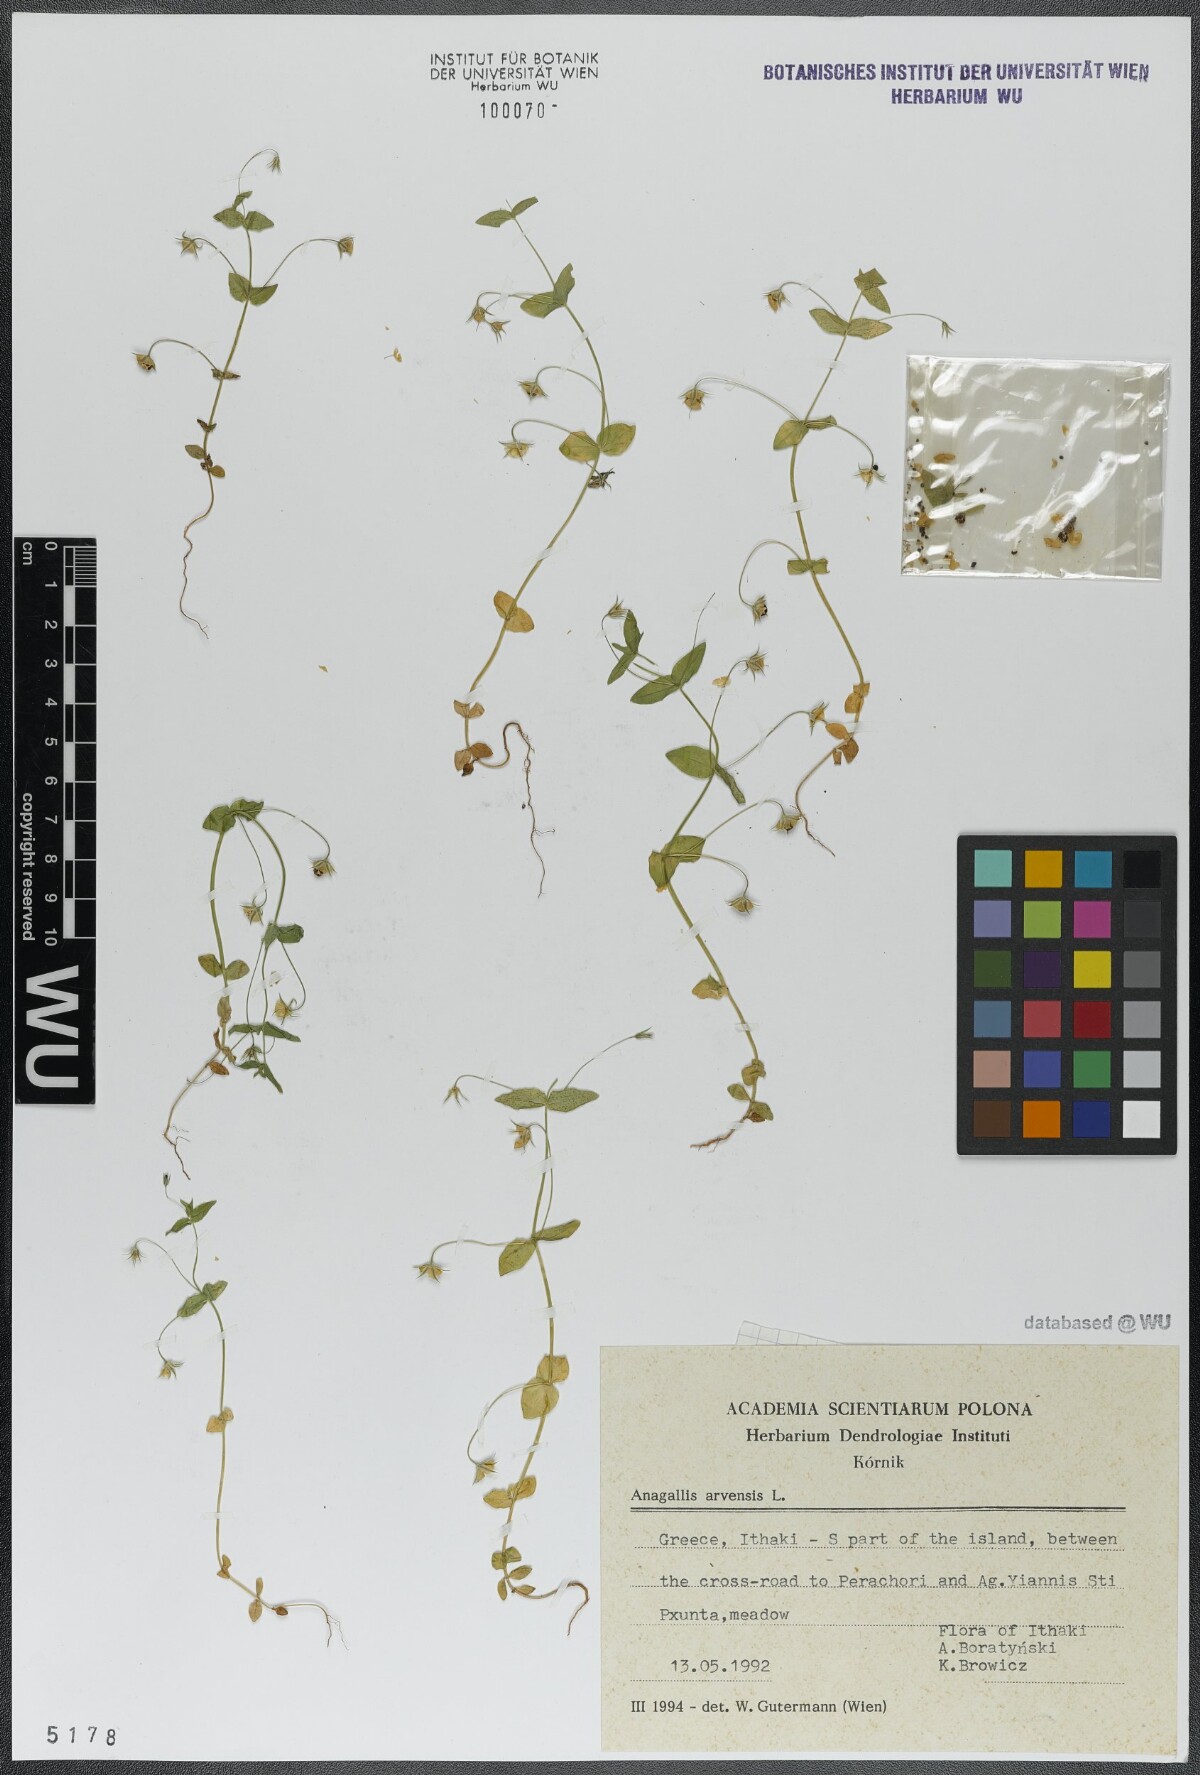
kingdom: Plantae
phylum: Tracheophyta
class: Magnoliopsida
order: Ericales
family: Primulaceae
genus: Lysimachia
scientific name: Lysimachia arvensis
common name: Scarlet pimpernel
